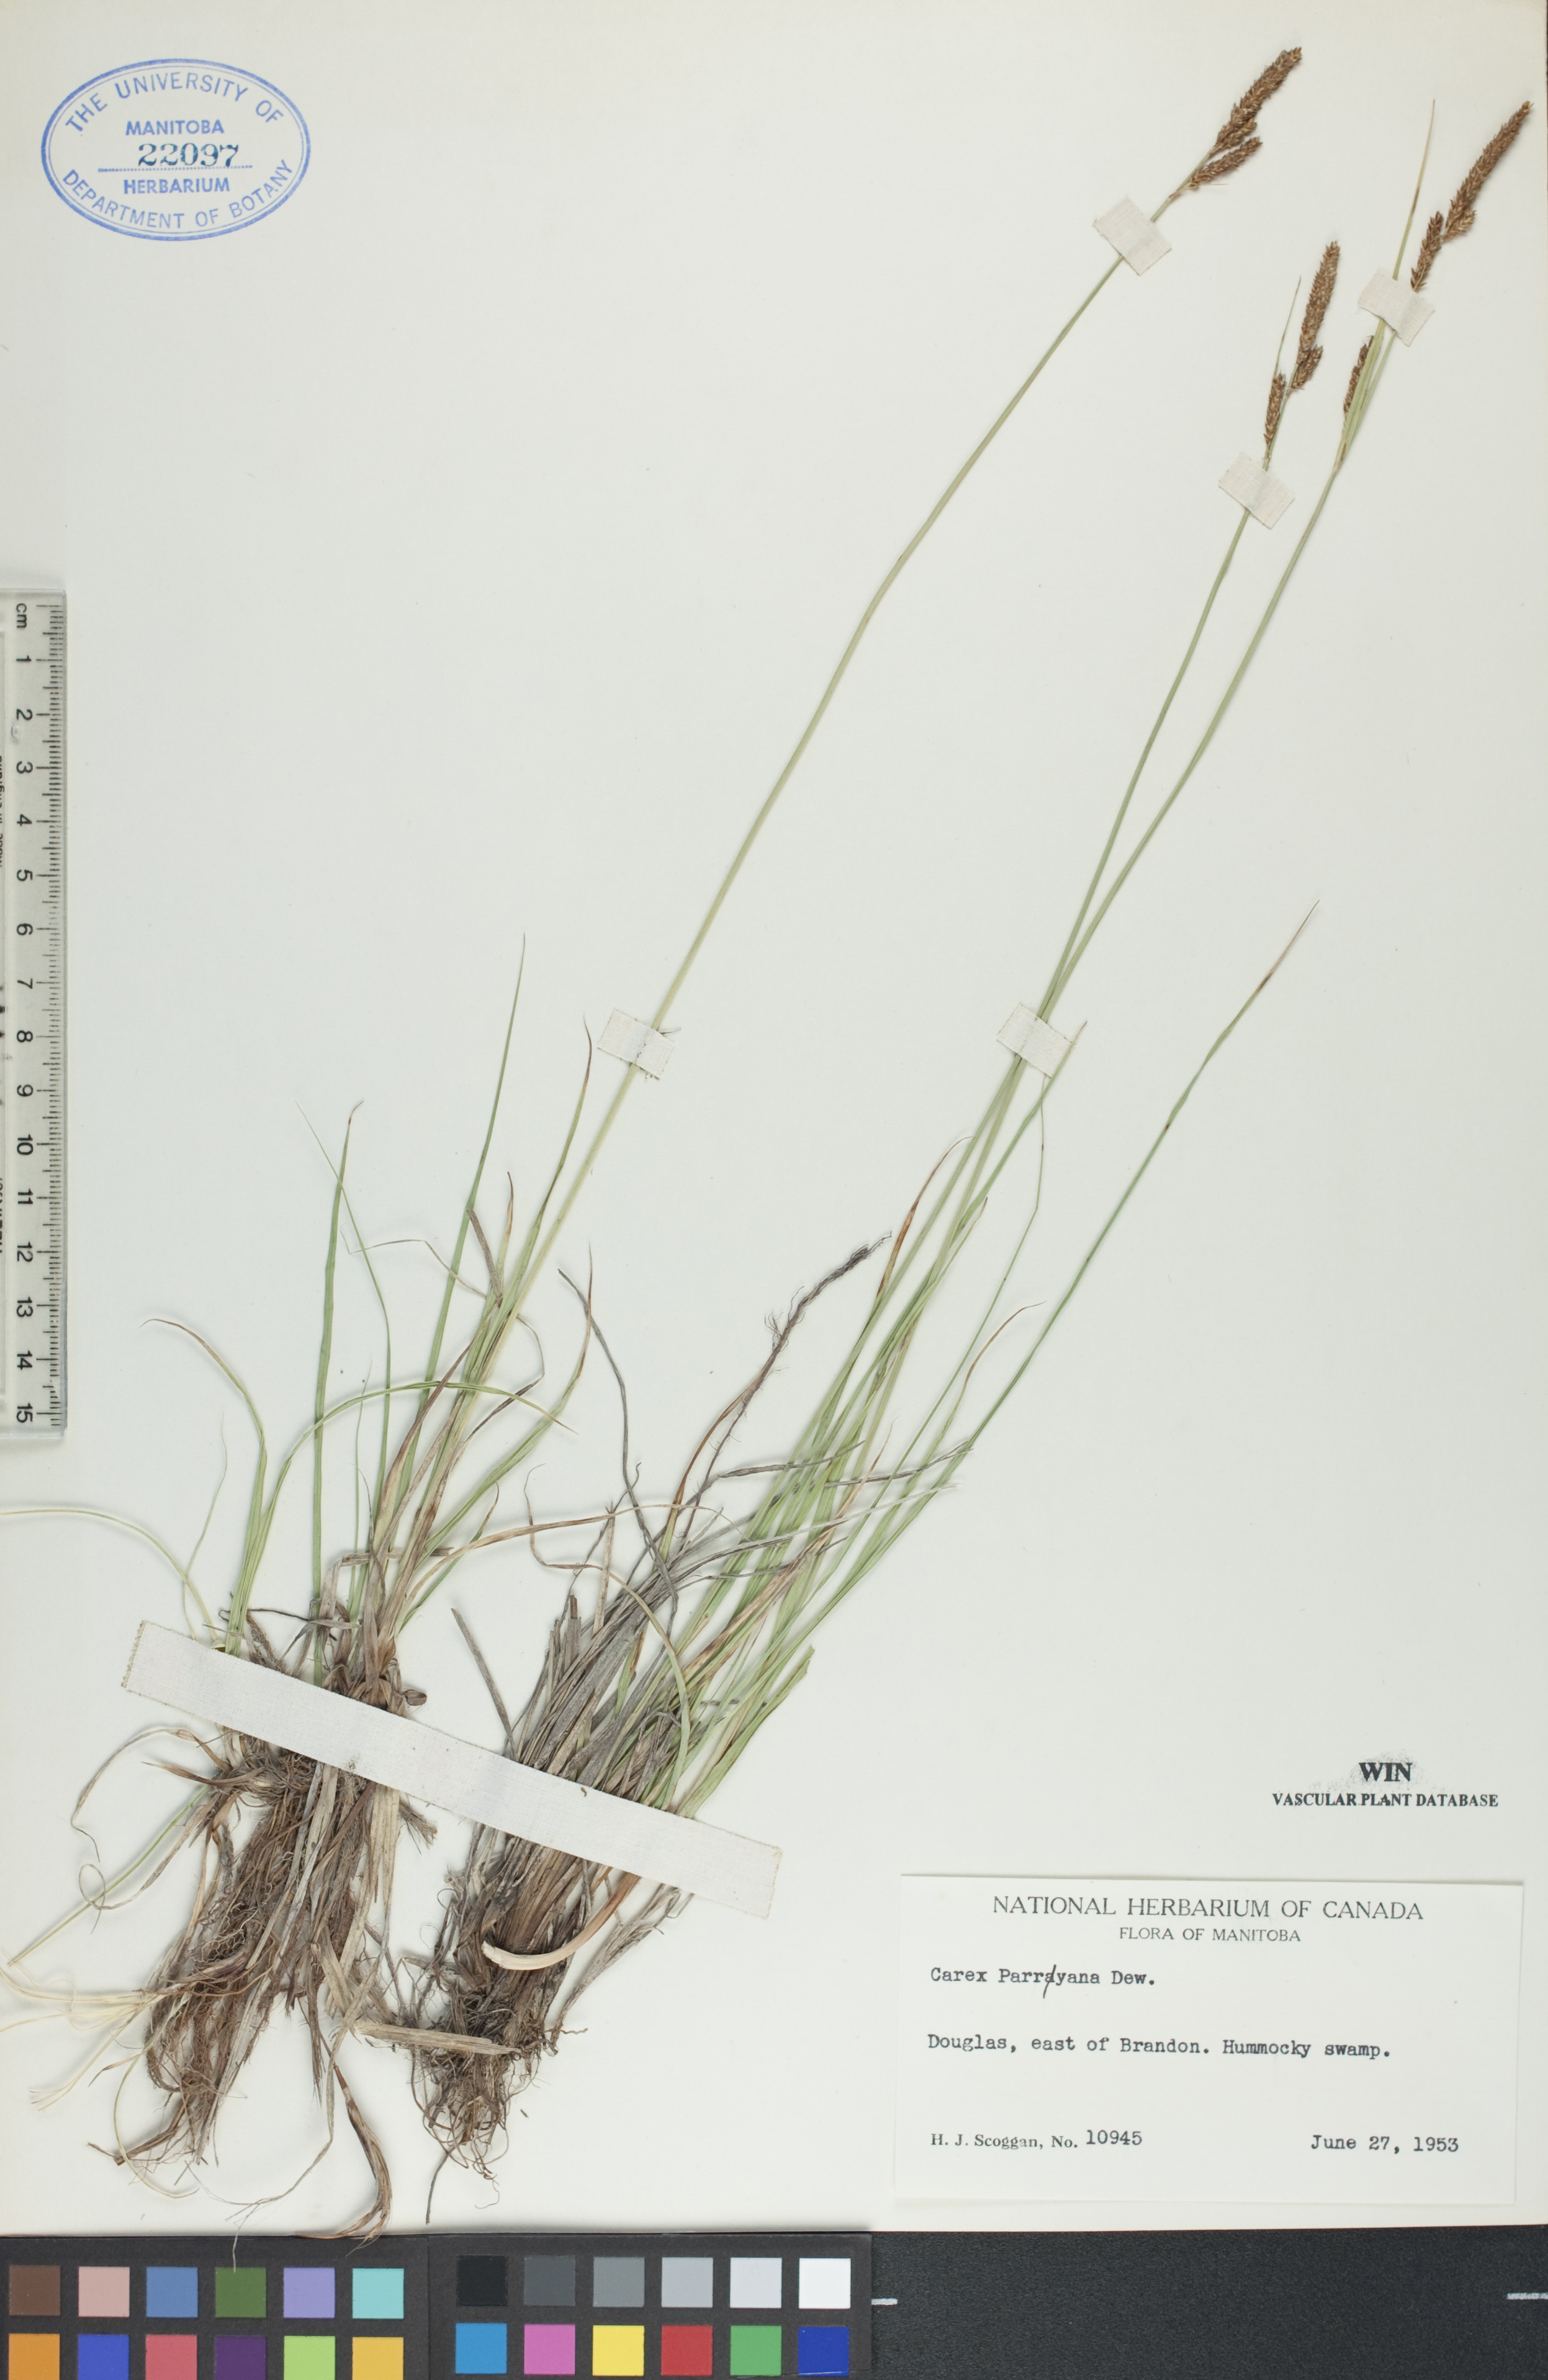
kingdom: Plantae
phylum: Tracheophyta
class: Liliopsida
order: Poales
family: Cyperaceae
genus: Carex
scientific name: Carex parryana
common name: Parry's sedge
